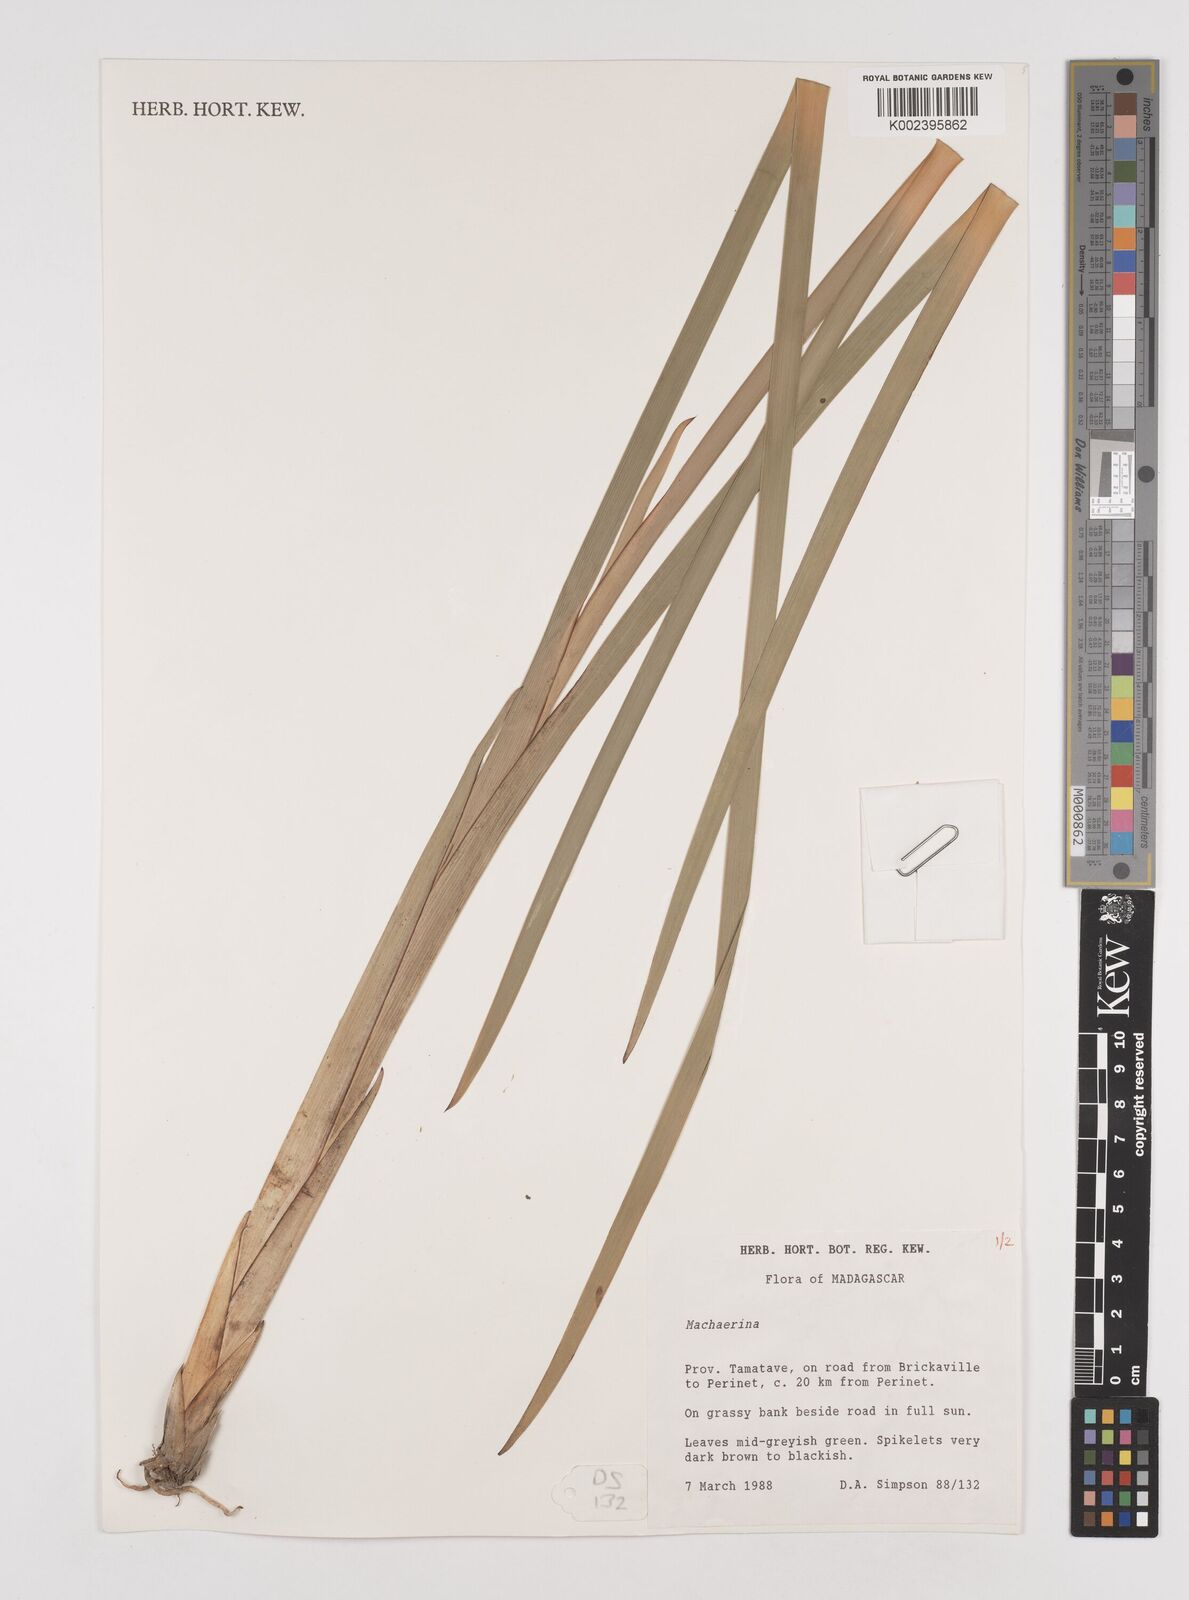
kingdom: Plantae
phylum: Tracheophyta
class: Liliopsida
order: Poales
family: Cyperaceae
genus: Machaerina
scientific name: Machaerina
